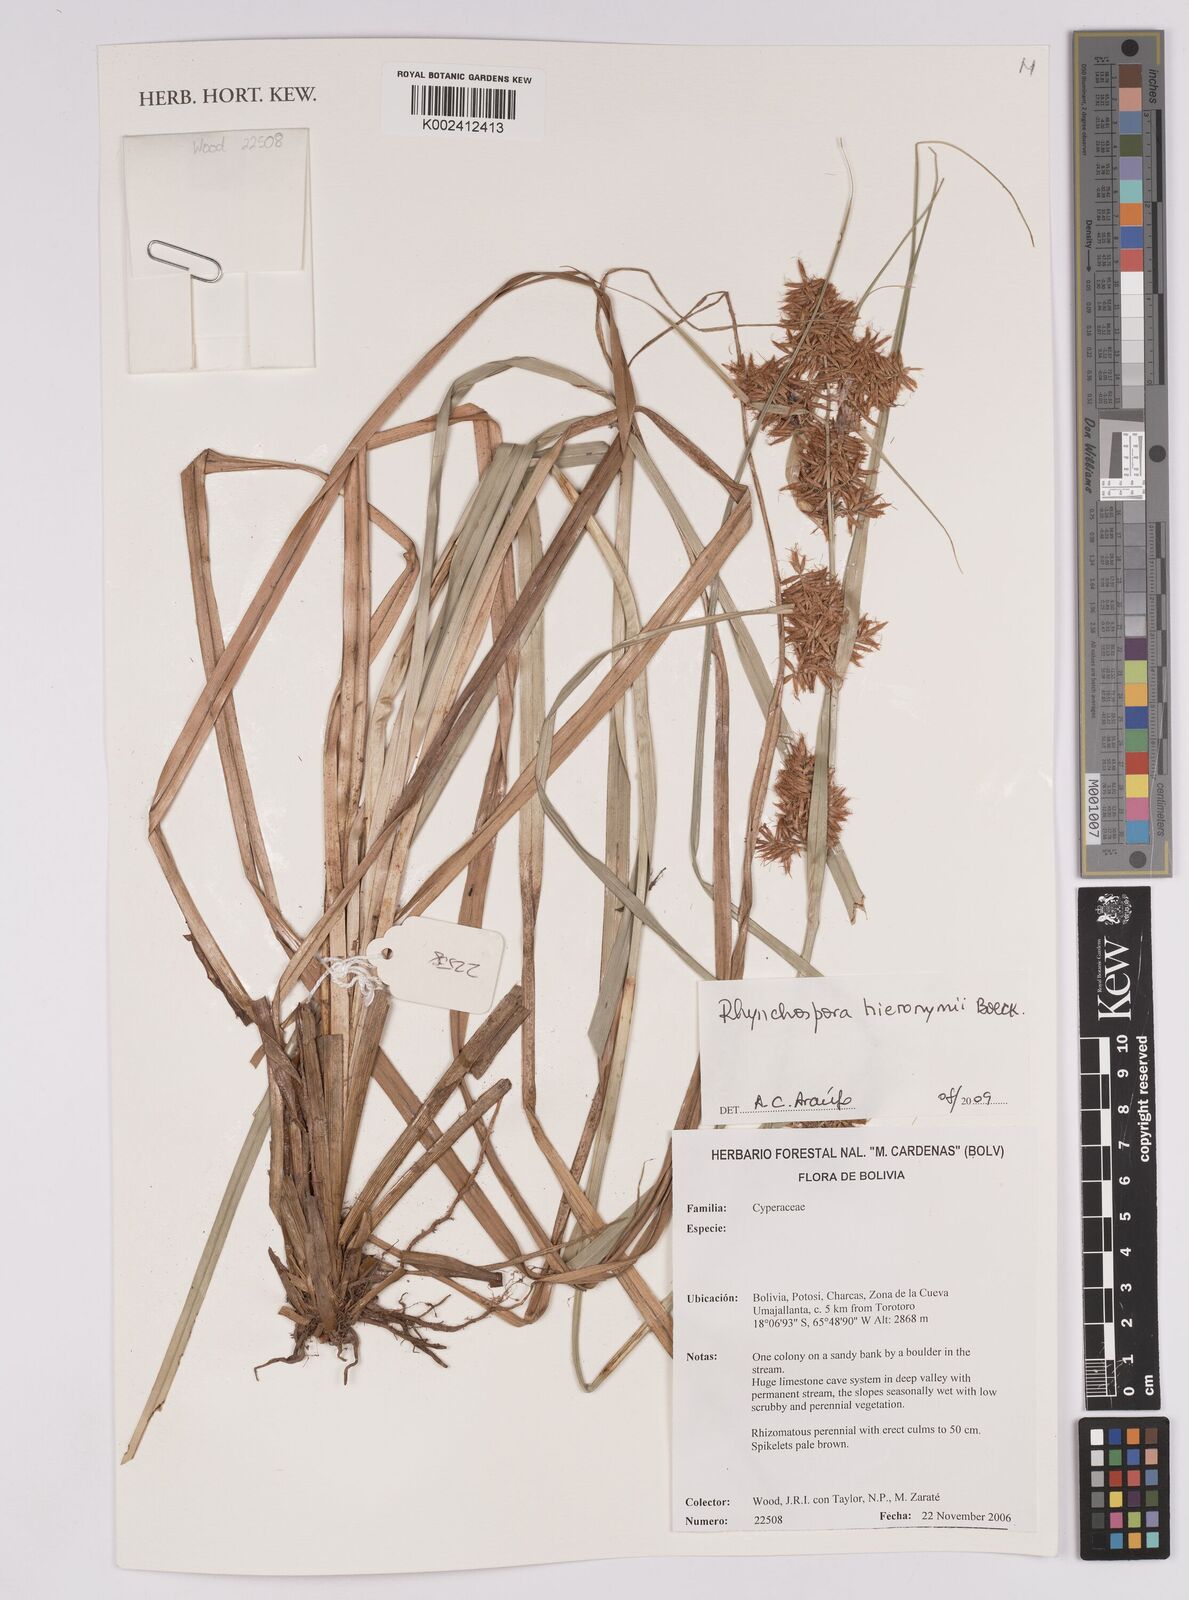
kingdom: Plantae
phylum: Tracheophyta
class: Liliopsida
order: Poales
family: Cyperaceae
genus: Rhynchospora
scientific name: Rhynchospora hieronymi
